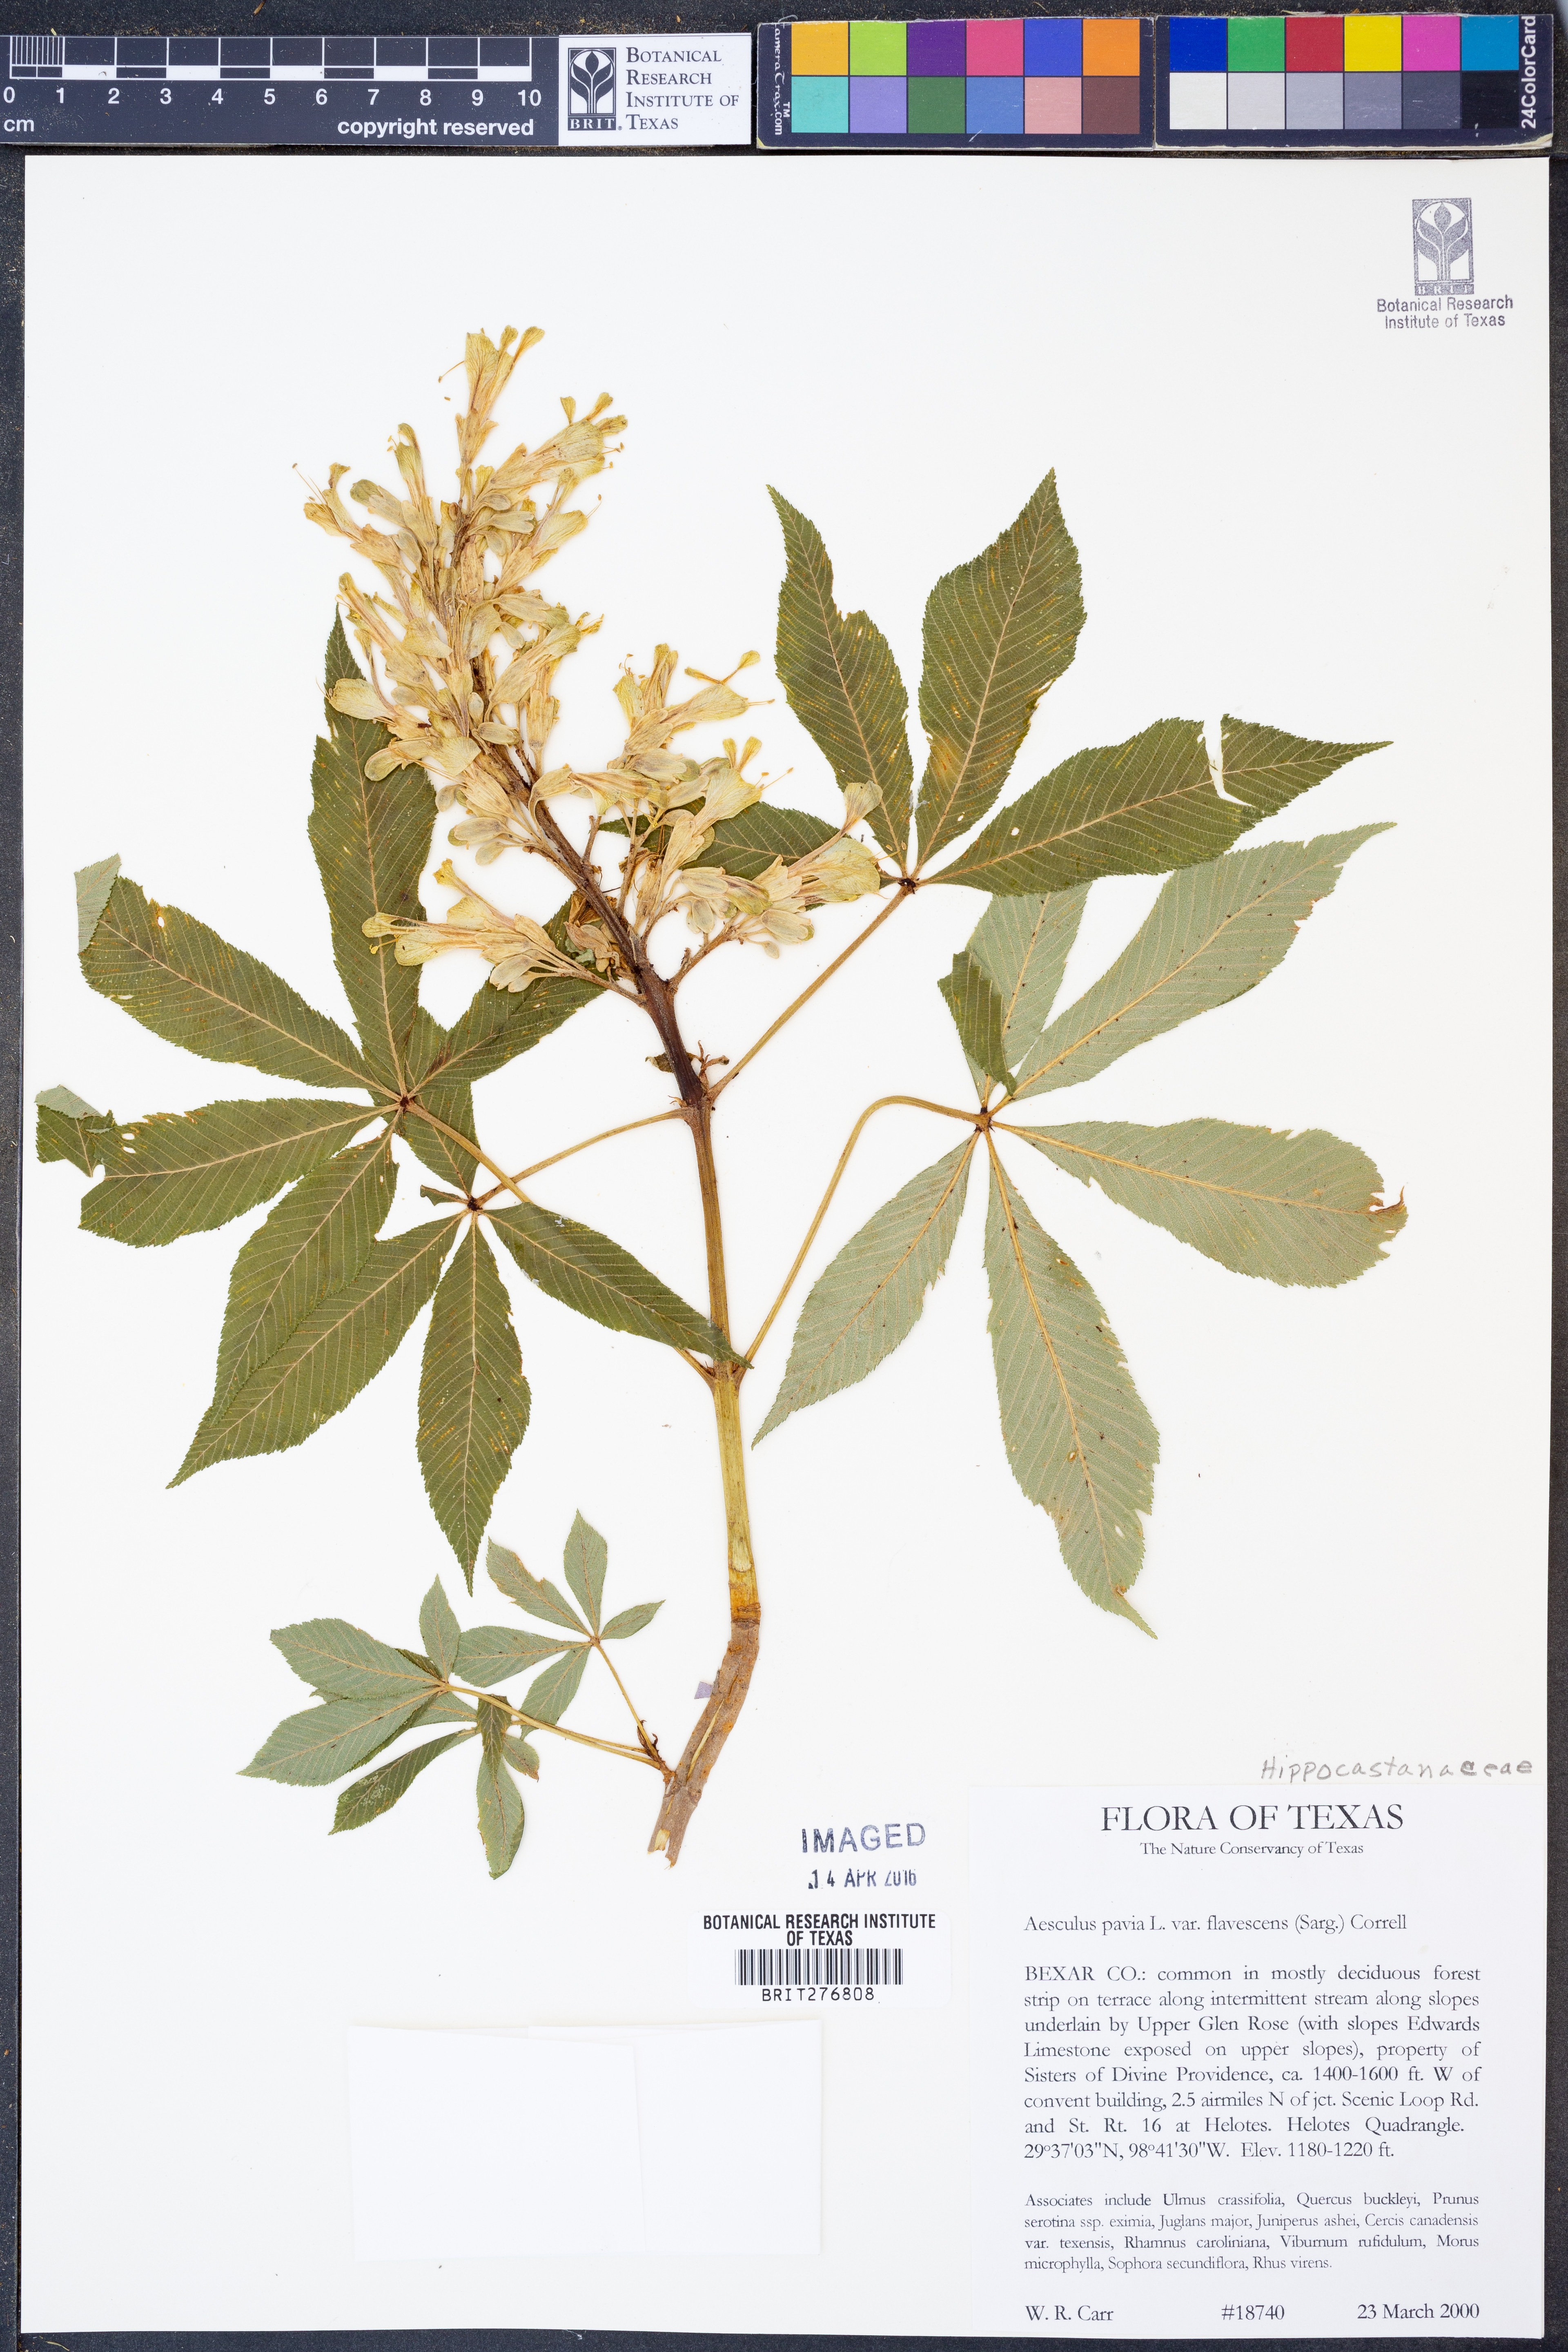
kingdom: Plantae
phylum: Tracheophyta
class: Magnoliopsida
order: Sapindales
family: Sapindaceae
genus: Aesculus
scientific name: Aesculus pavia
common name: Red buckeye
